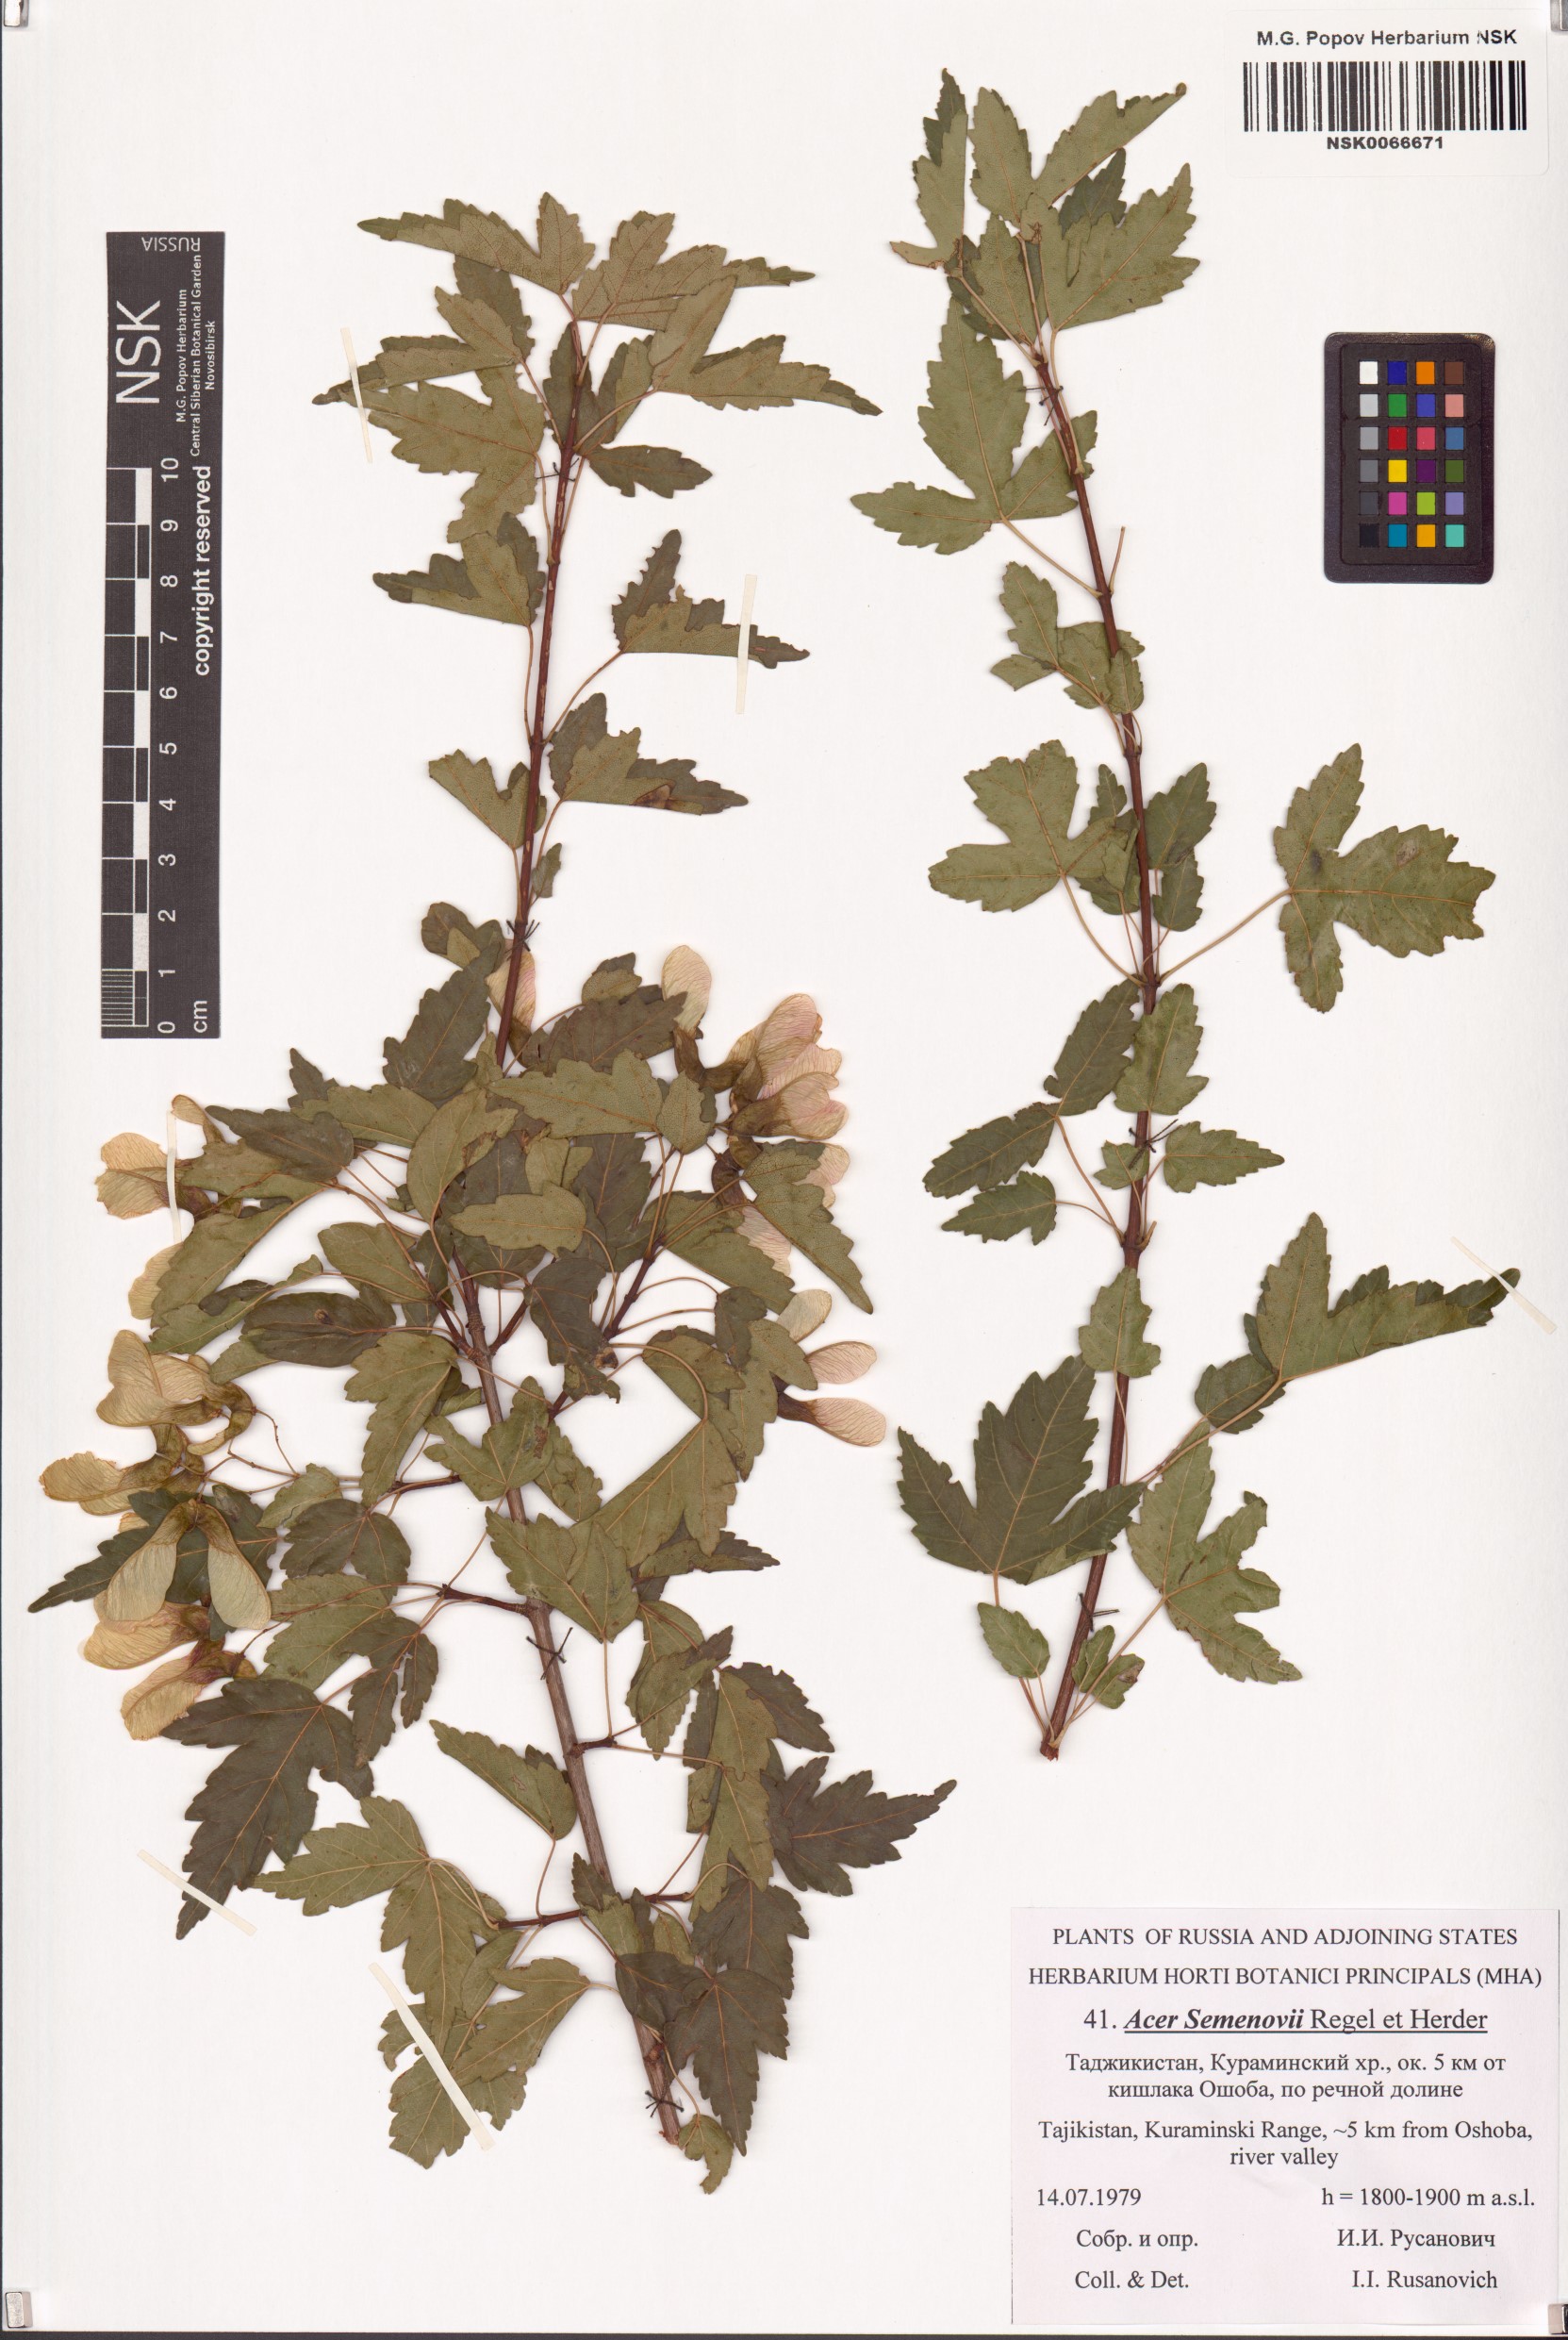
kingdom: Plantae
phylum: Tracheophyta
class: Magnoliopsida
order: Sapindales
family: Sapindaceae
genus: Acer
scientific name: Acer tataricum
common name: Tartar maple
